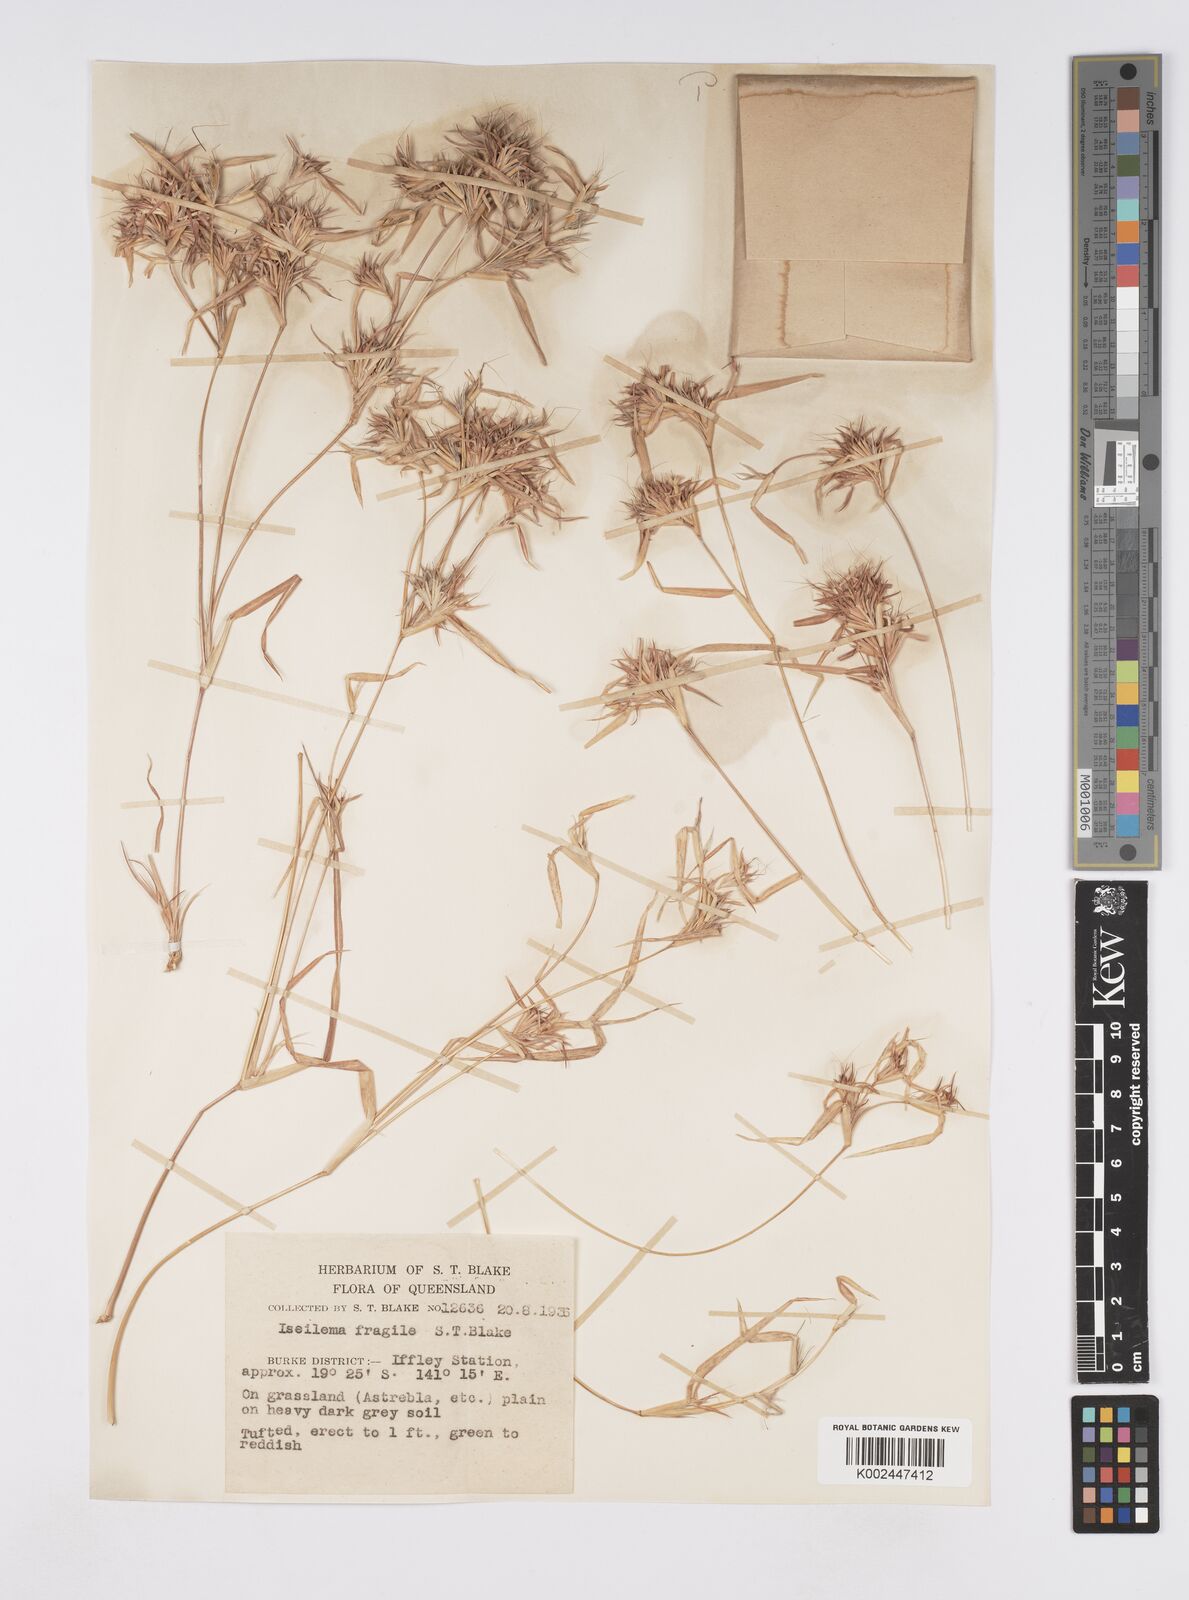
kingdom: Plantae
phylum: Tracheophyta
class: Liliopsida
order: Poales
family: Poaceae
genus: Iseilema
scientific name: Iseilema fragile
